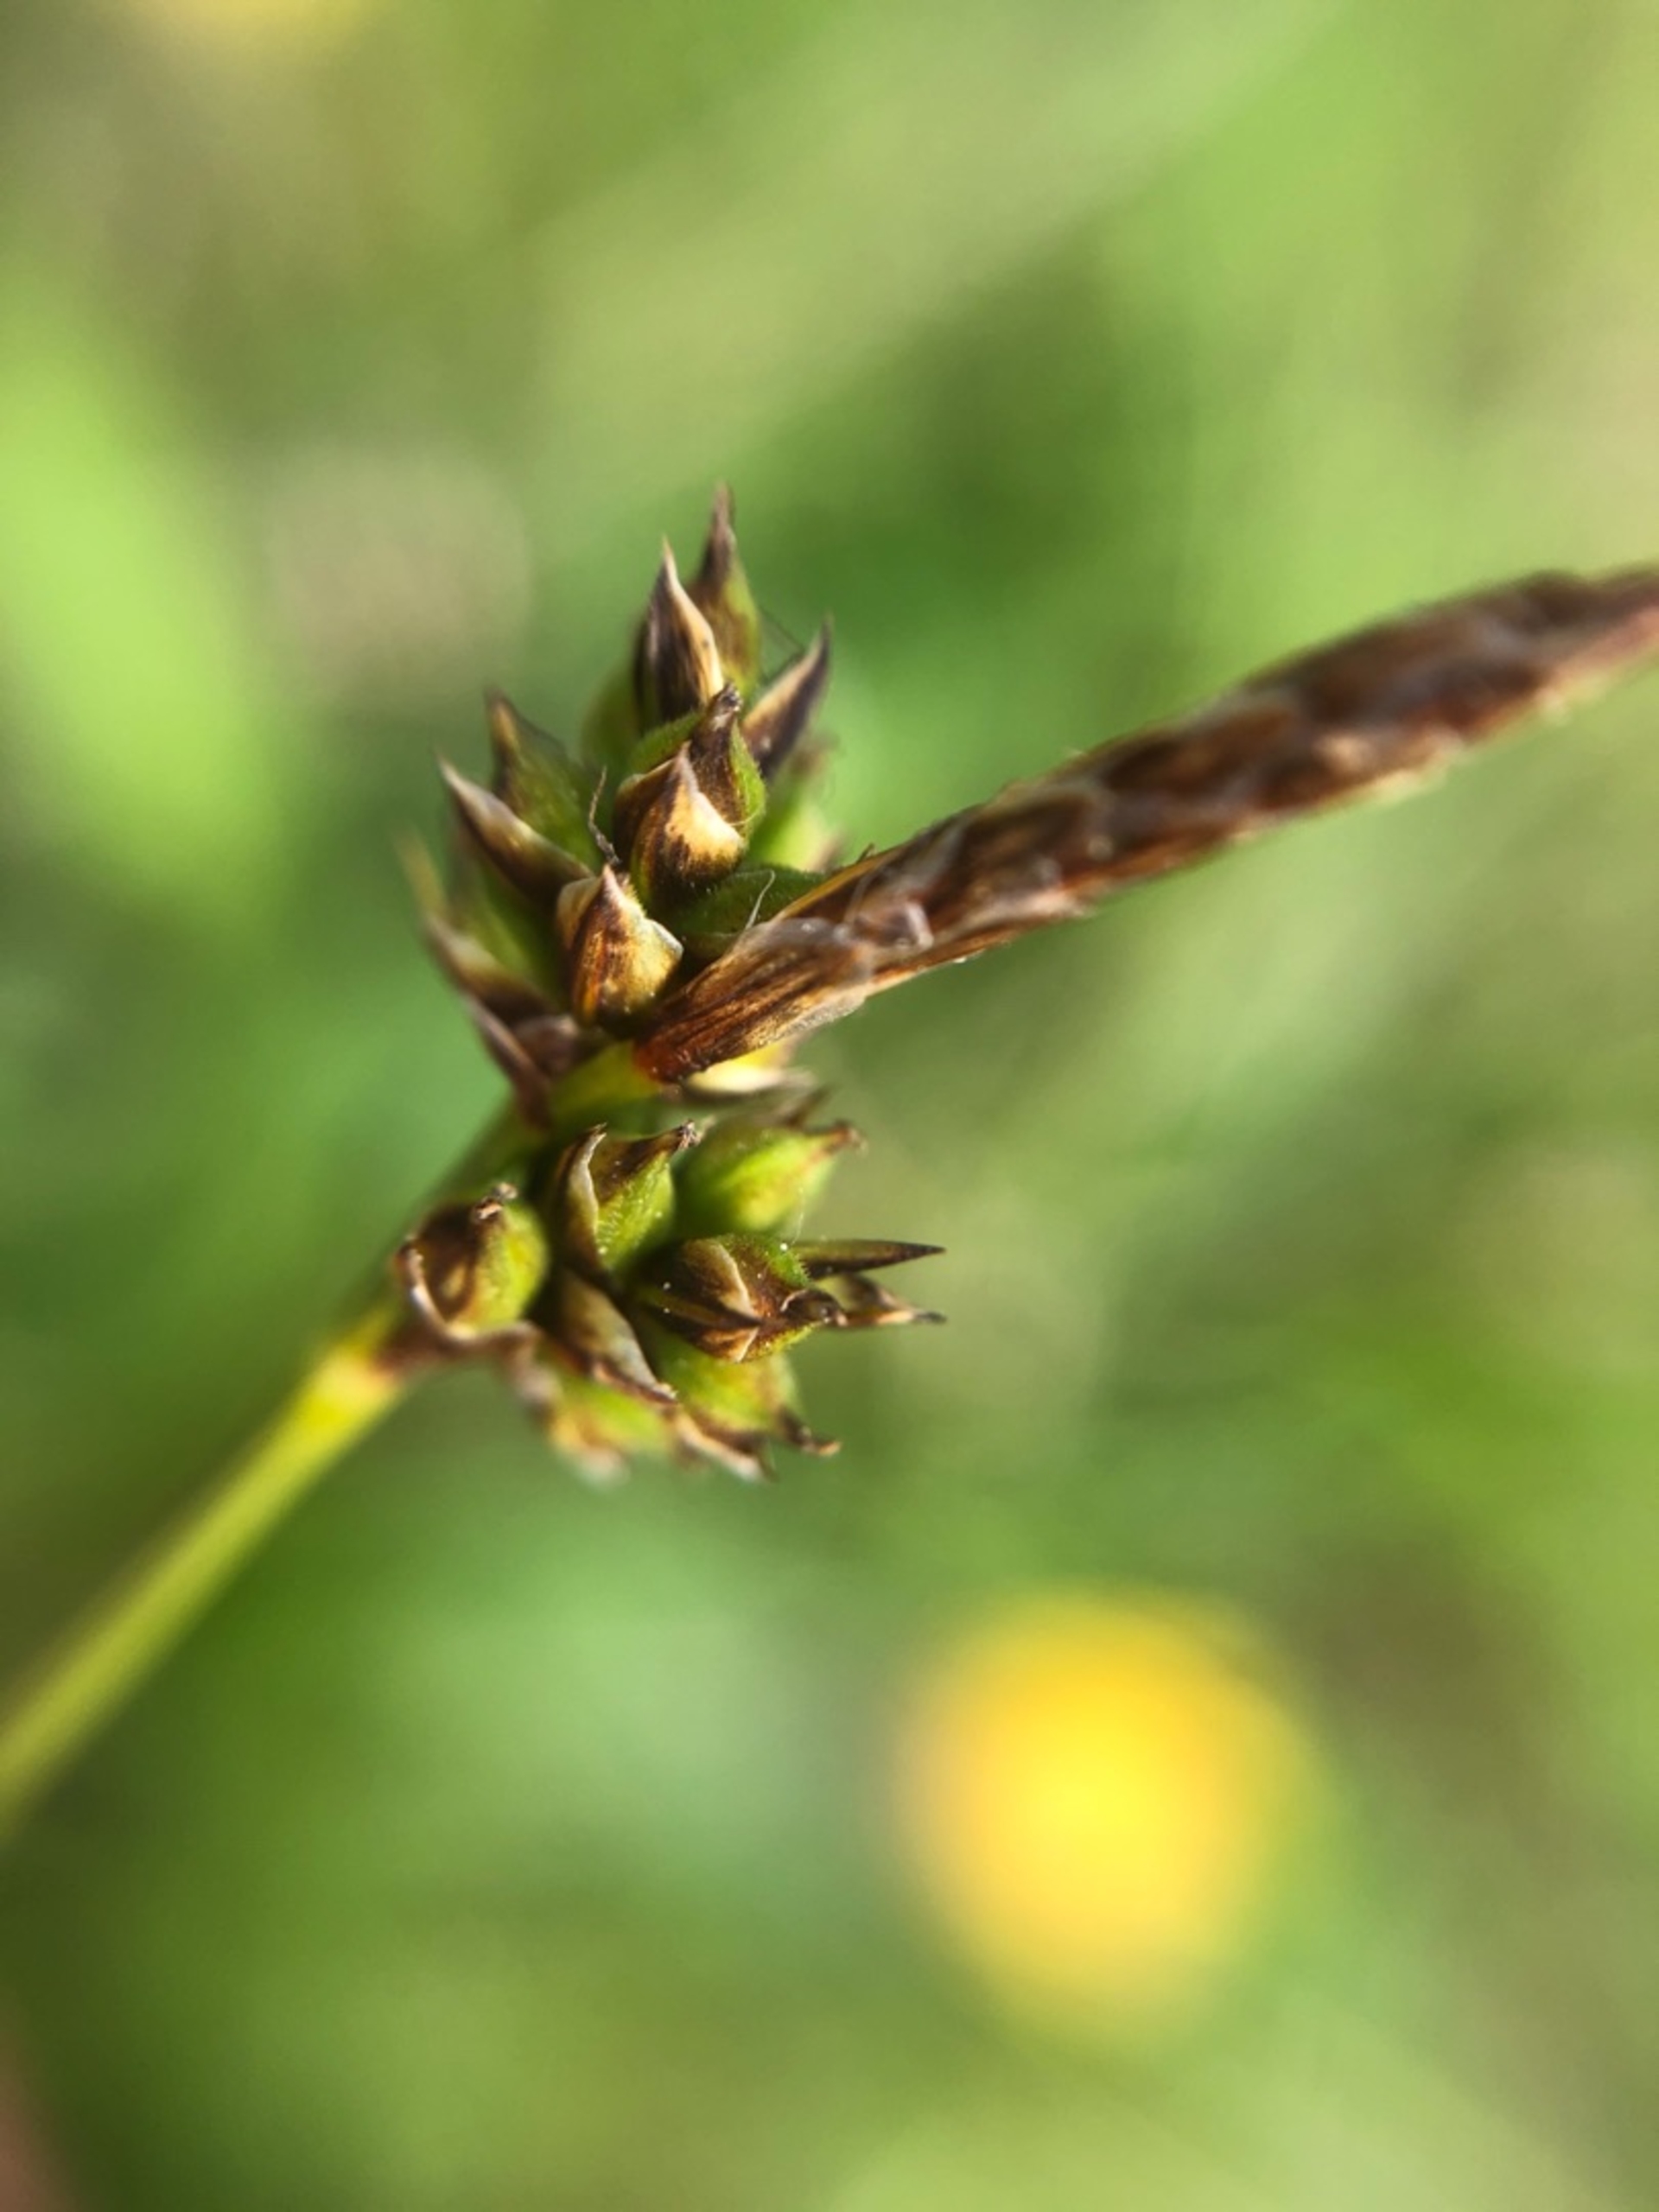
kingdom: Plantae
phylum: Tracheophyta
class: Liliopsida
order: Poales
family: Cyperaceae
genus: Carex
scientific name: Carex pilulifera
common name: Pille-star
